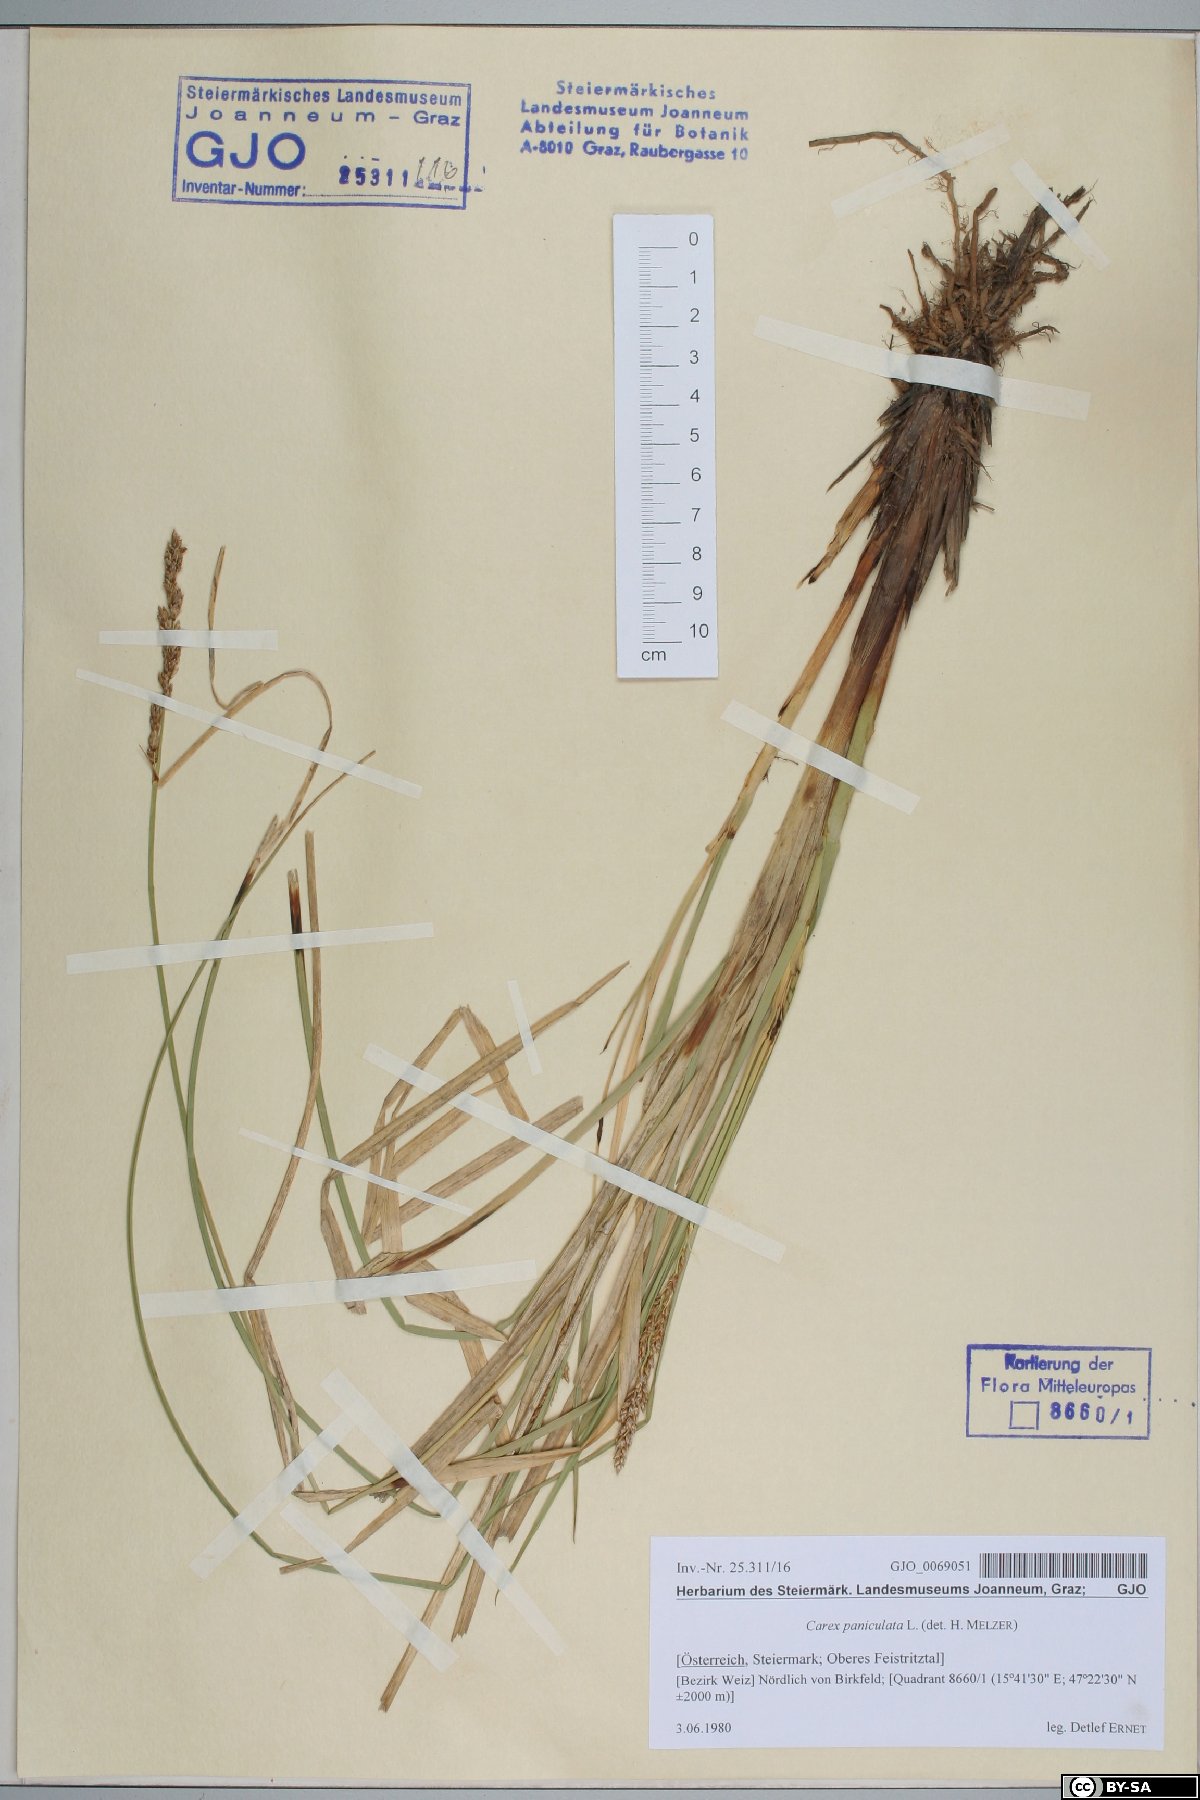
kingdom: Plantae
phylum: Tracheophyta
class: Liliopsida
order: Poales
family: Cyperaceae
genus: Carex
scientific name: Carex paniculata
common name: Greater tussock-sedge
